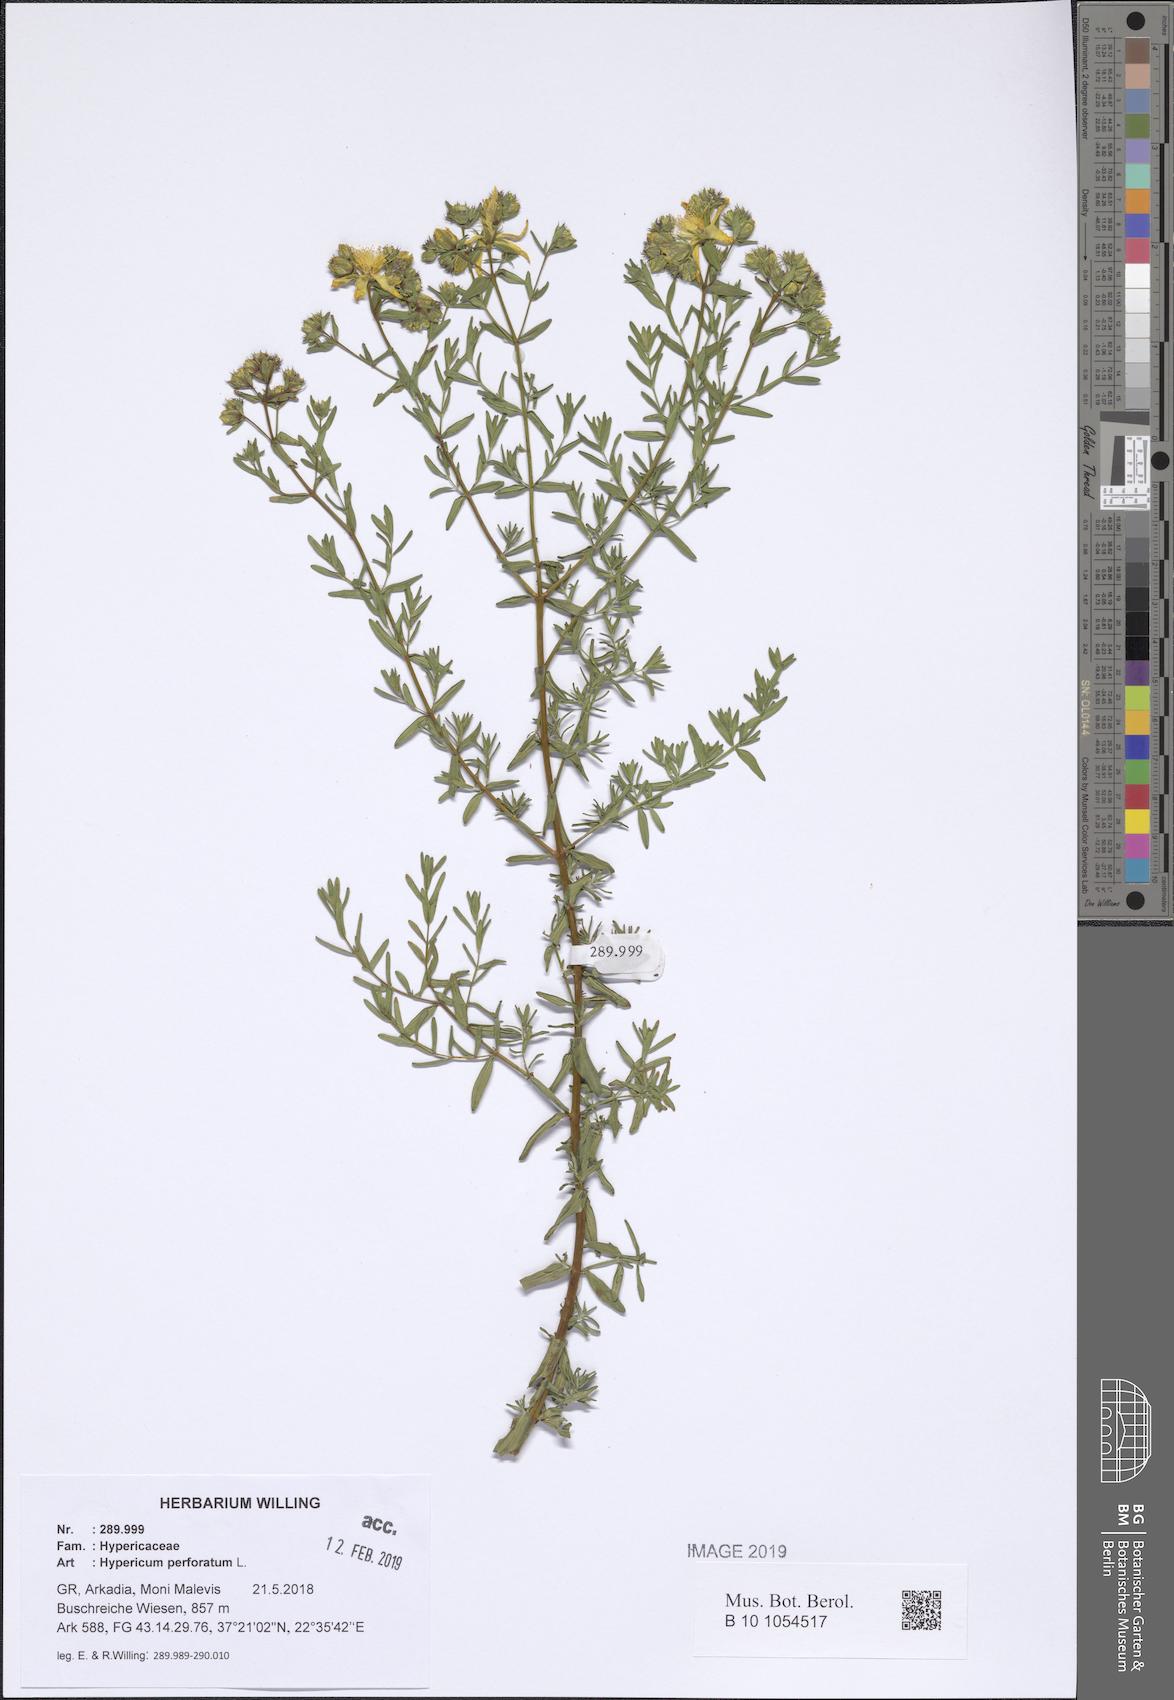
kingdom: Plantae
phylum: Tracheophyta
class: Magnoliopsida
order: Malpighiales
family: Hypericaceae
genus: Hypericum
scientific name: Hypericum perforatum
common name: Common st. johnswort
